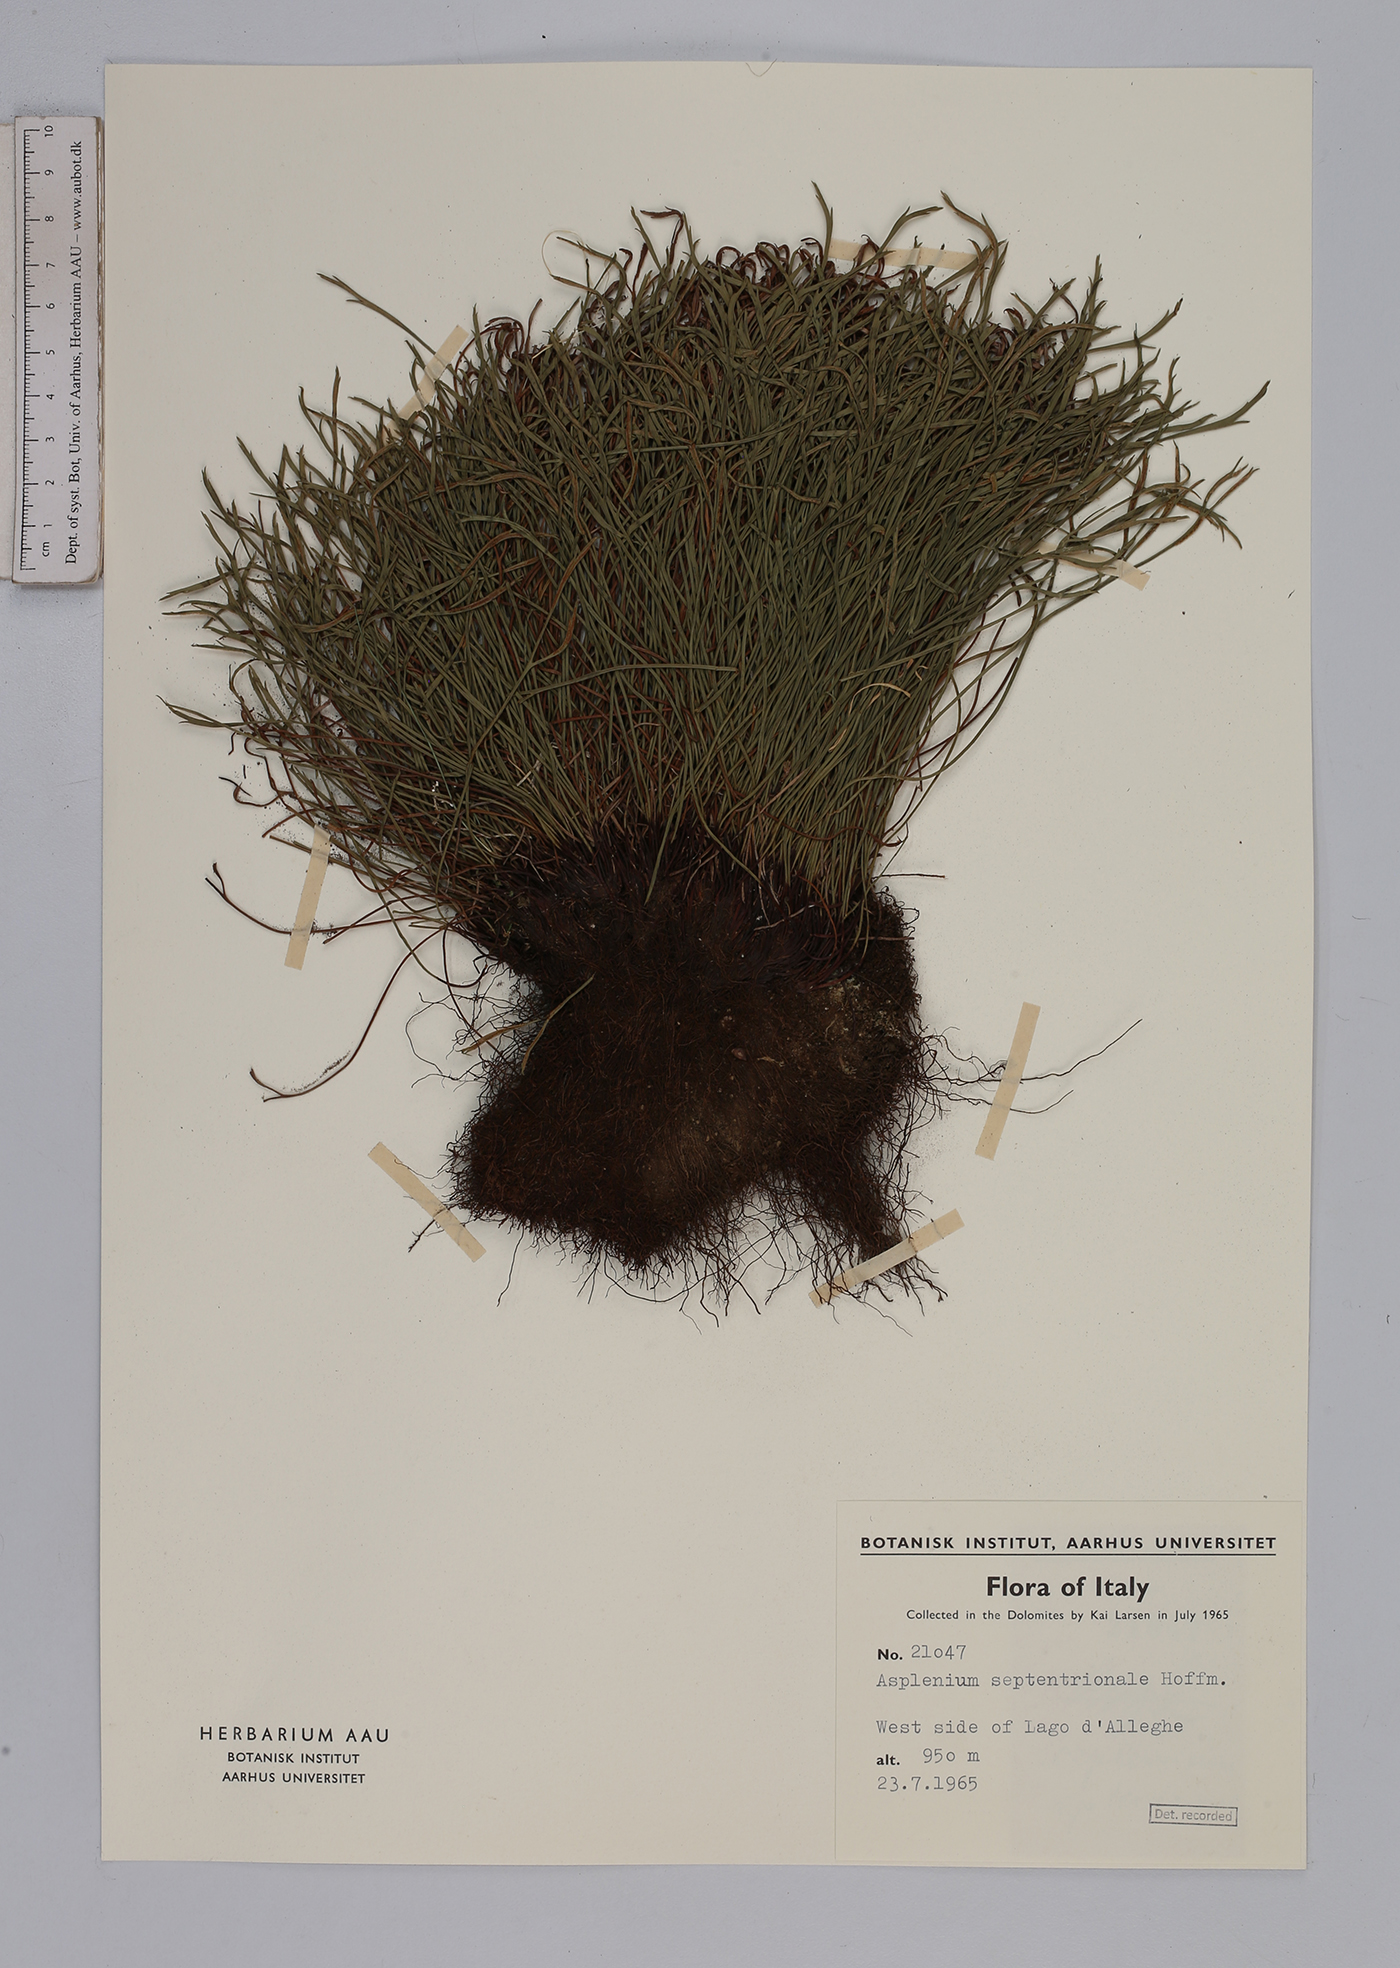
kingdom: Plantae
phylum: Tracheophyta
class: Polypodiopsida
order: Polypodiales
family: Aspleniaceae
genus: Asplenium
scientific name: Asplenium septentrionale
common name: Forked spleenwort
